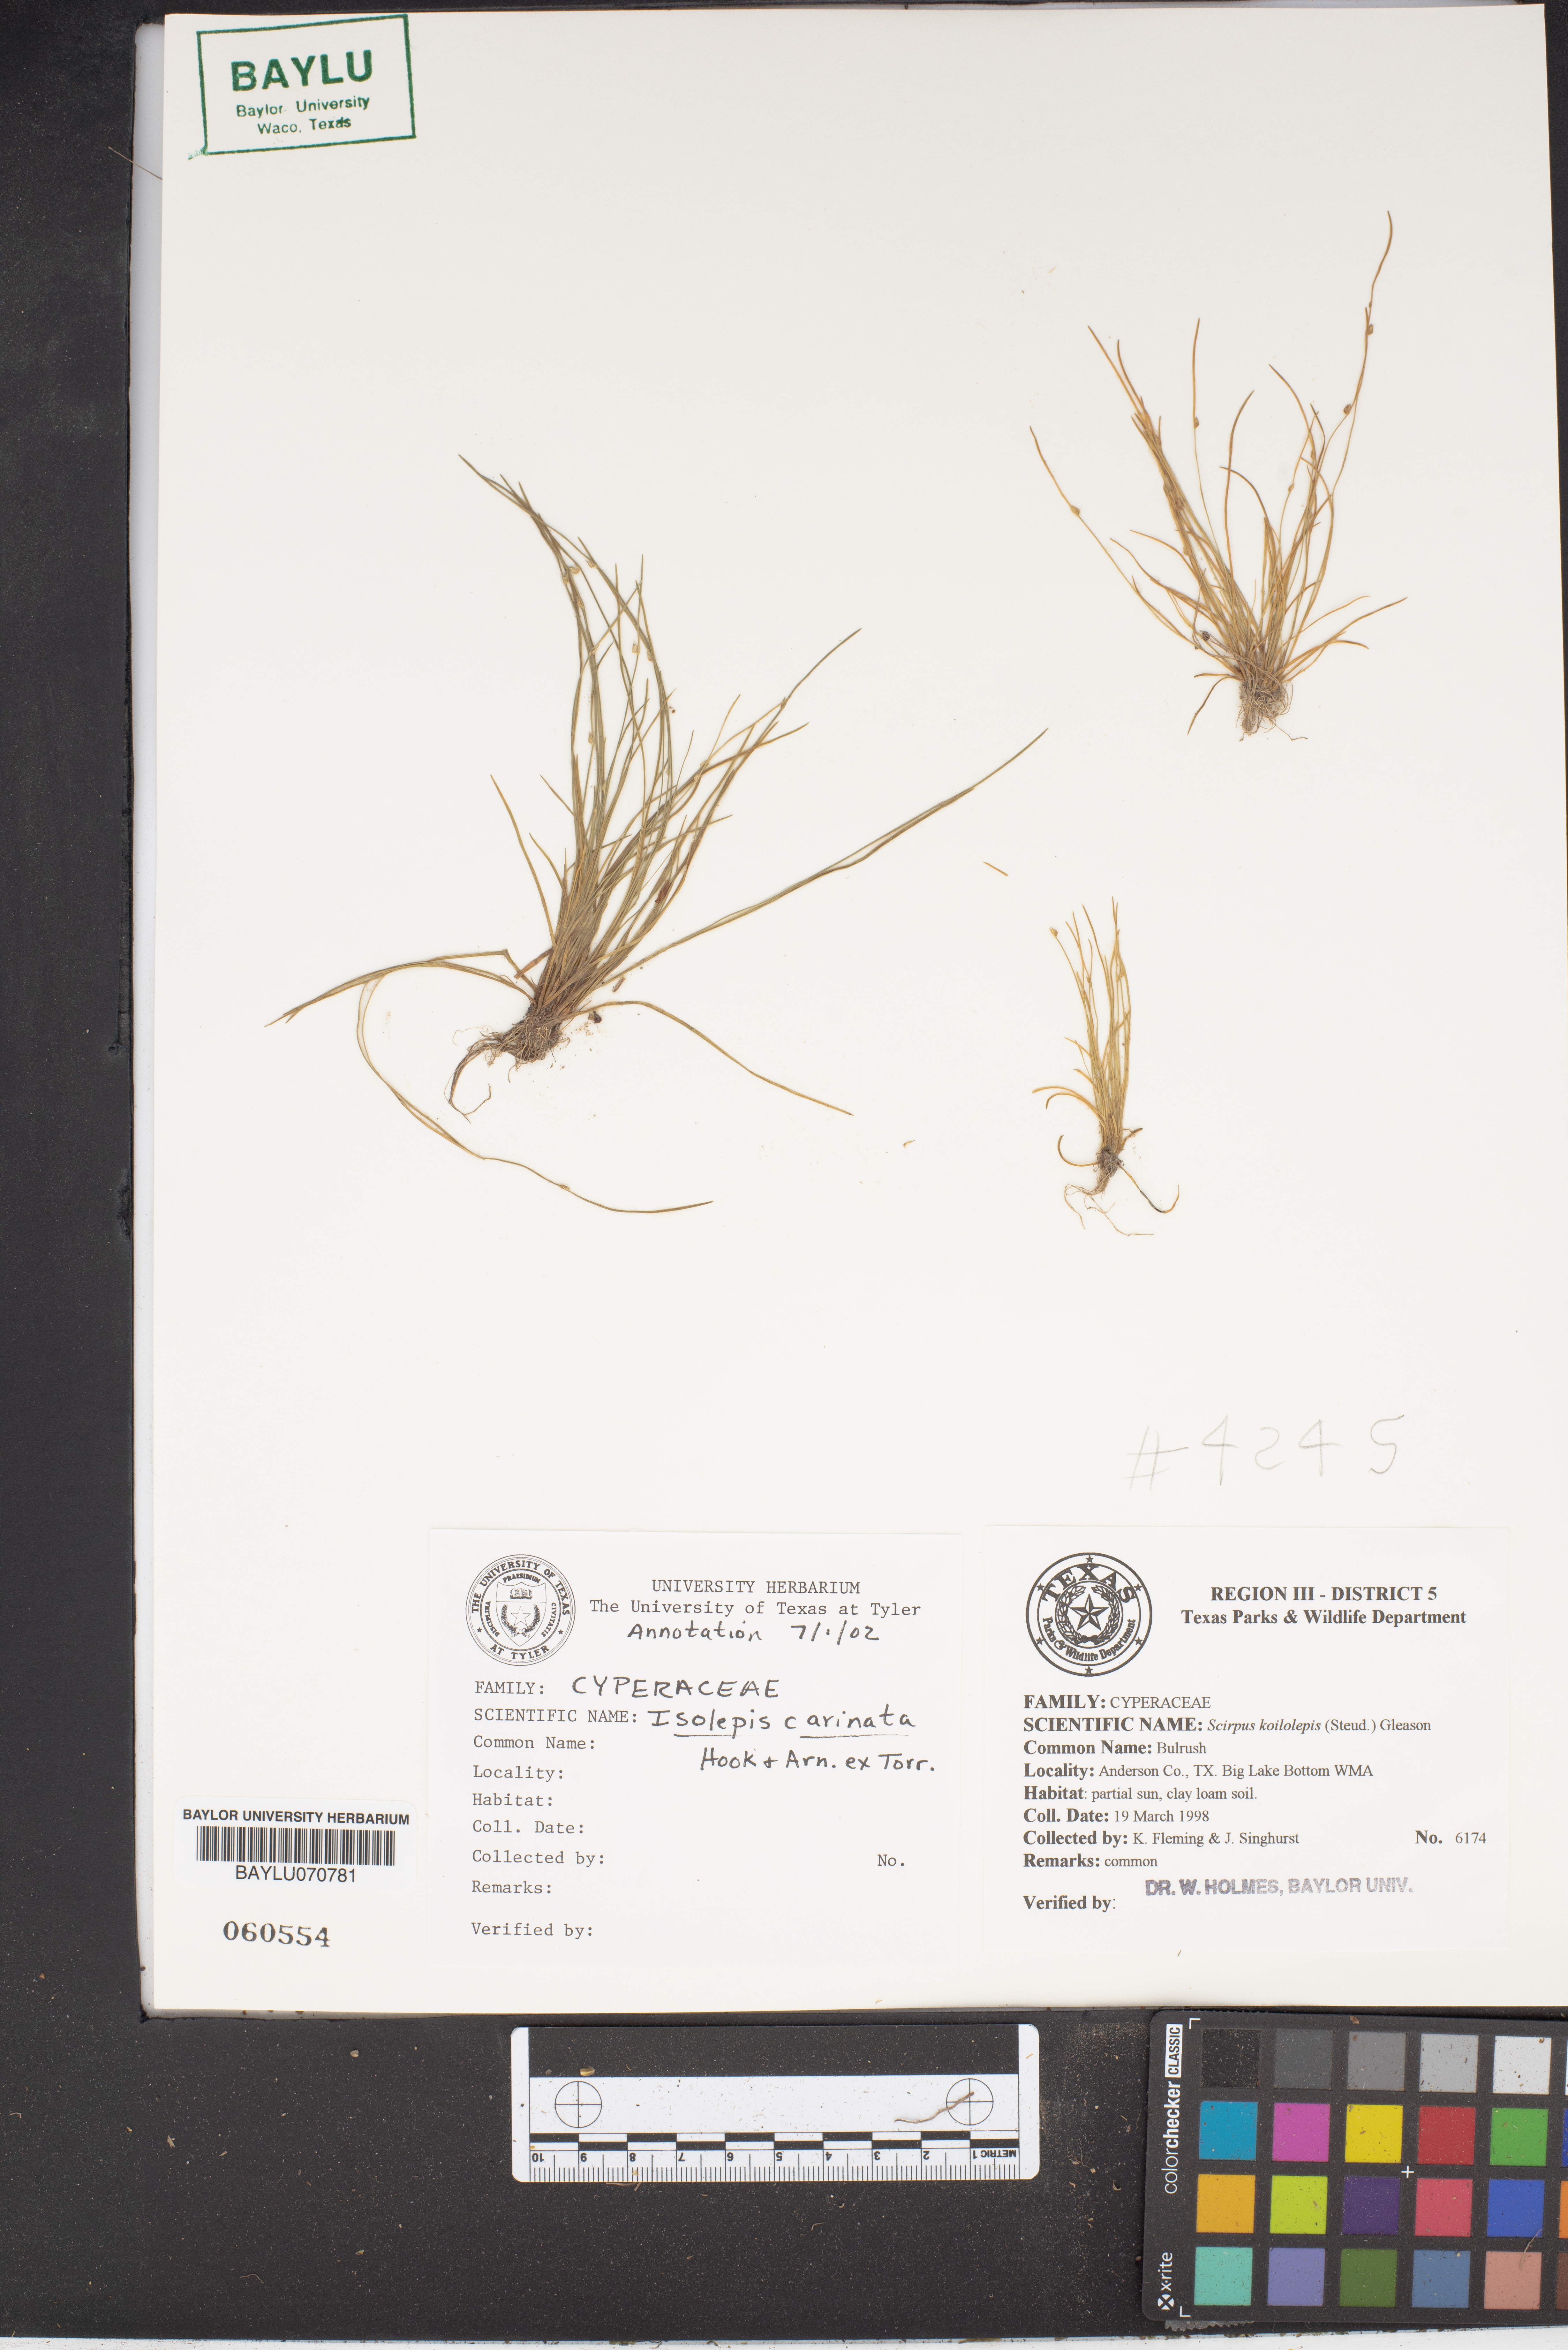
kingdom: Plantae
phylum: Tracheophyta
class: Liliopsida
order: Poales
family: Cyperaceae
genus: Isolepis
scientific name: Isolepis carinata
